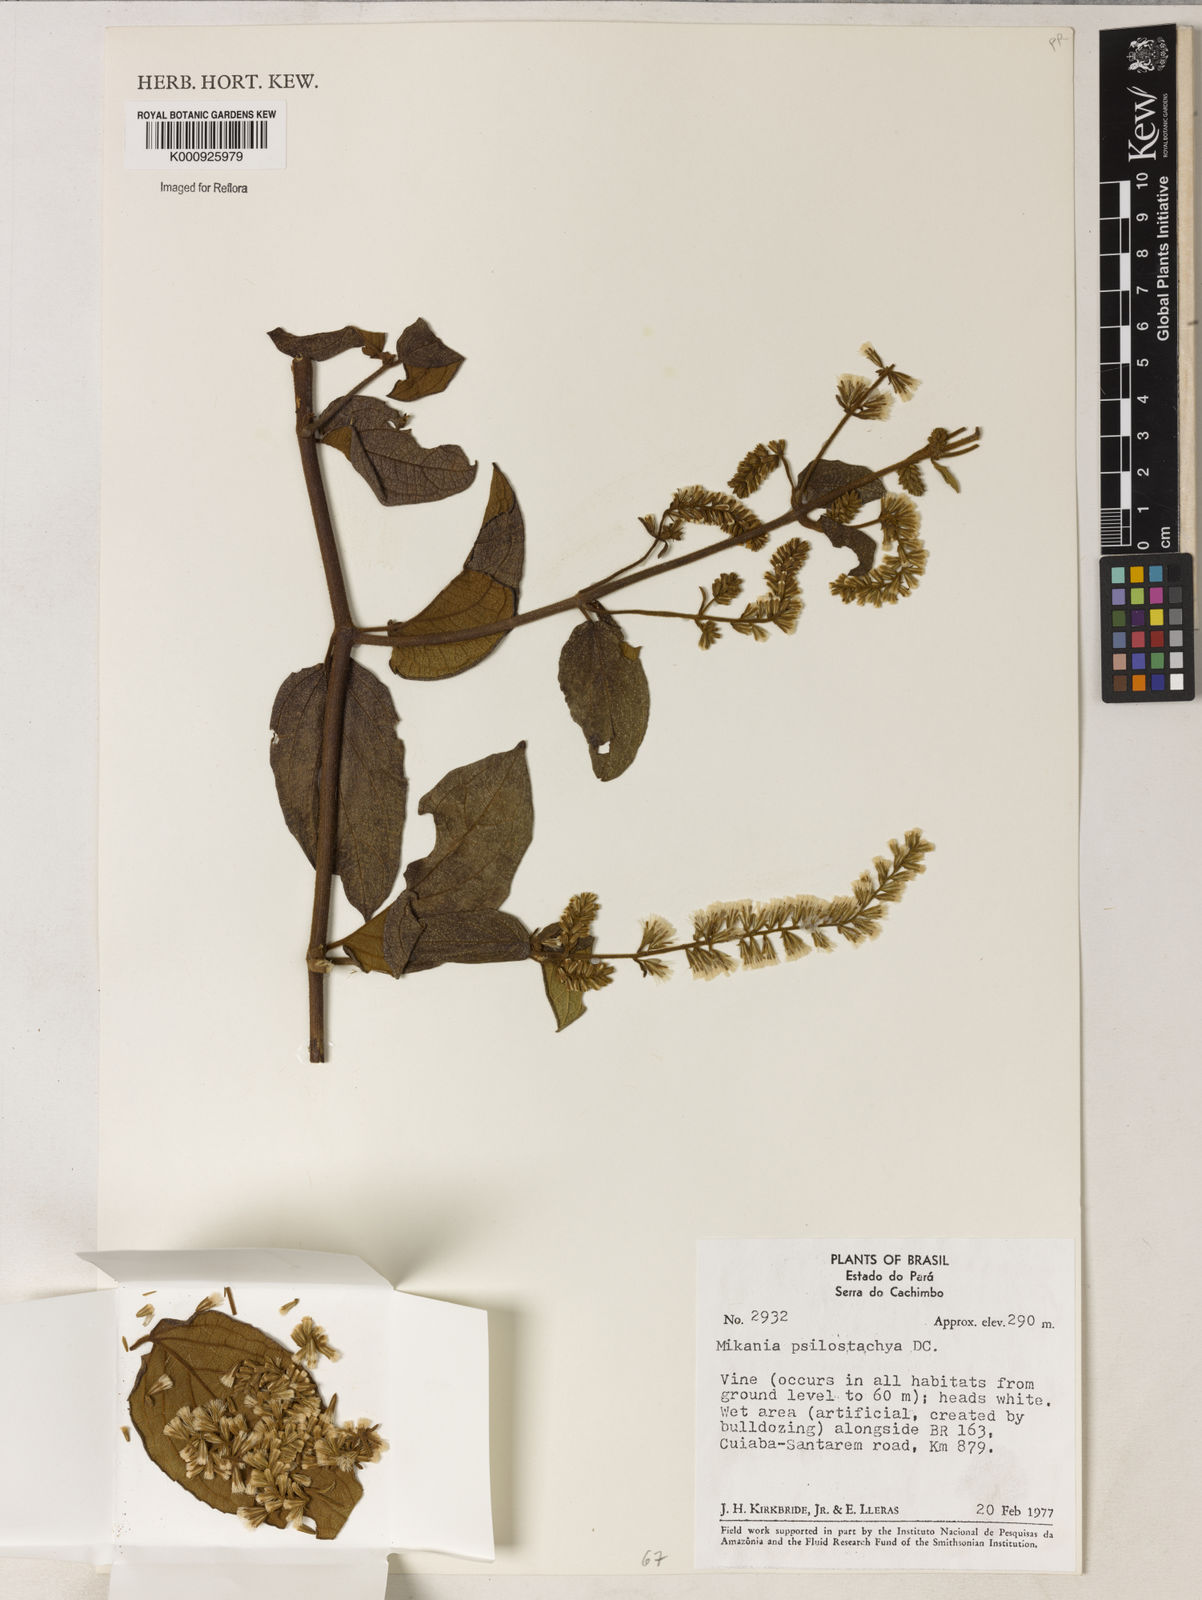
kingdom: Plantae
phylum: Tracheophyta
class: Magnoliopsida
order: Asterales
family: Asteraceae
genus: Mikania
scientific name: Mikania psilostachya
